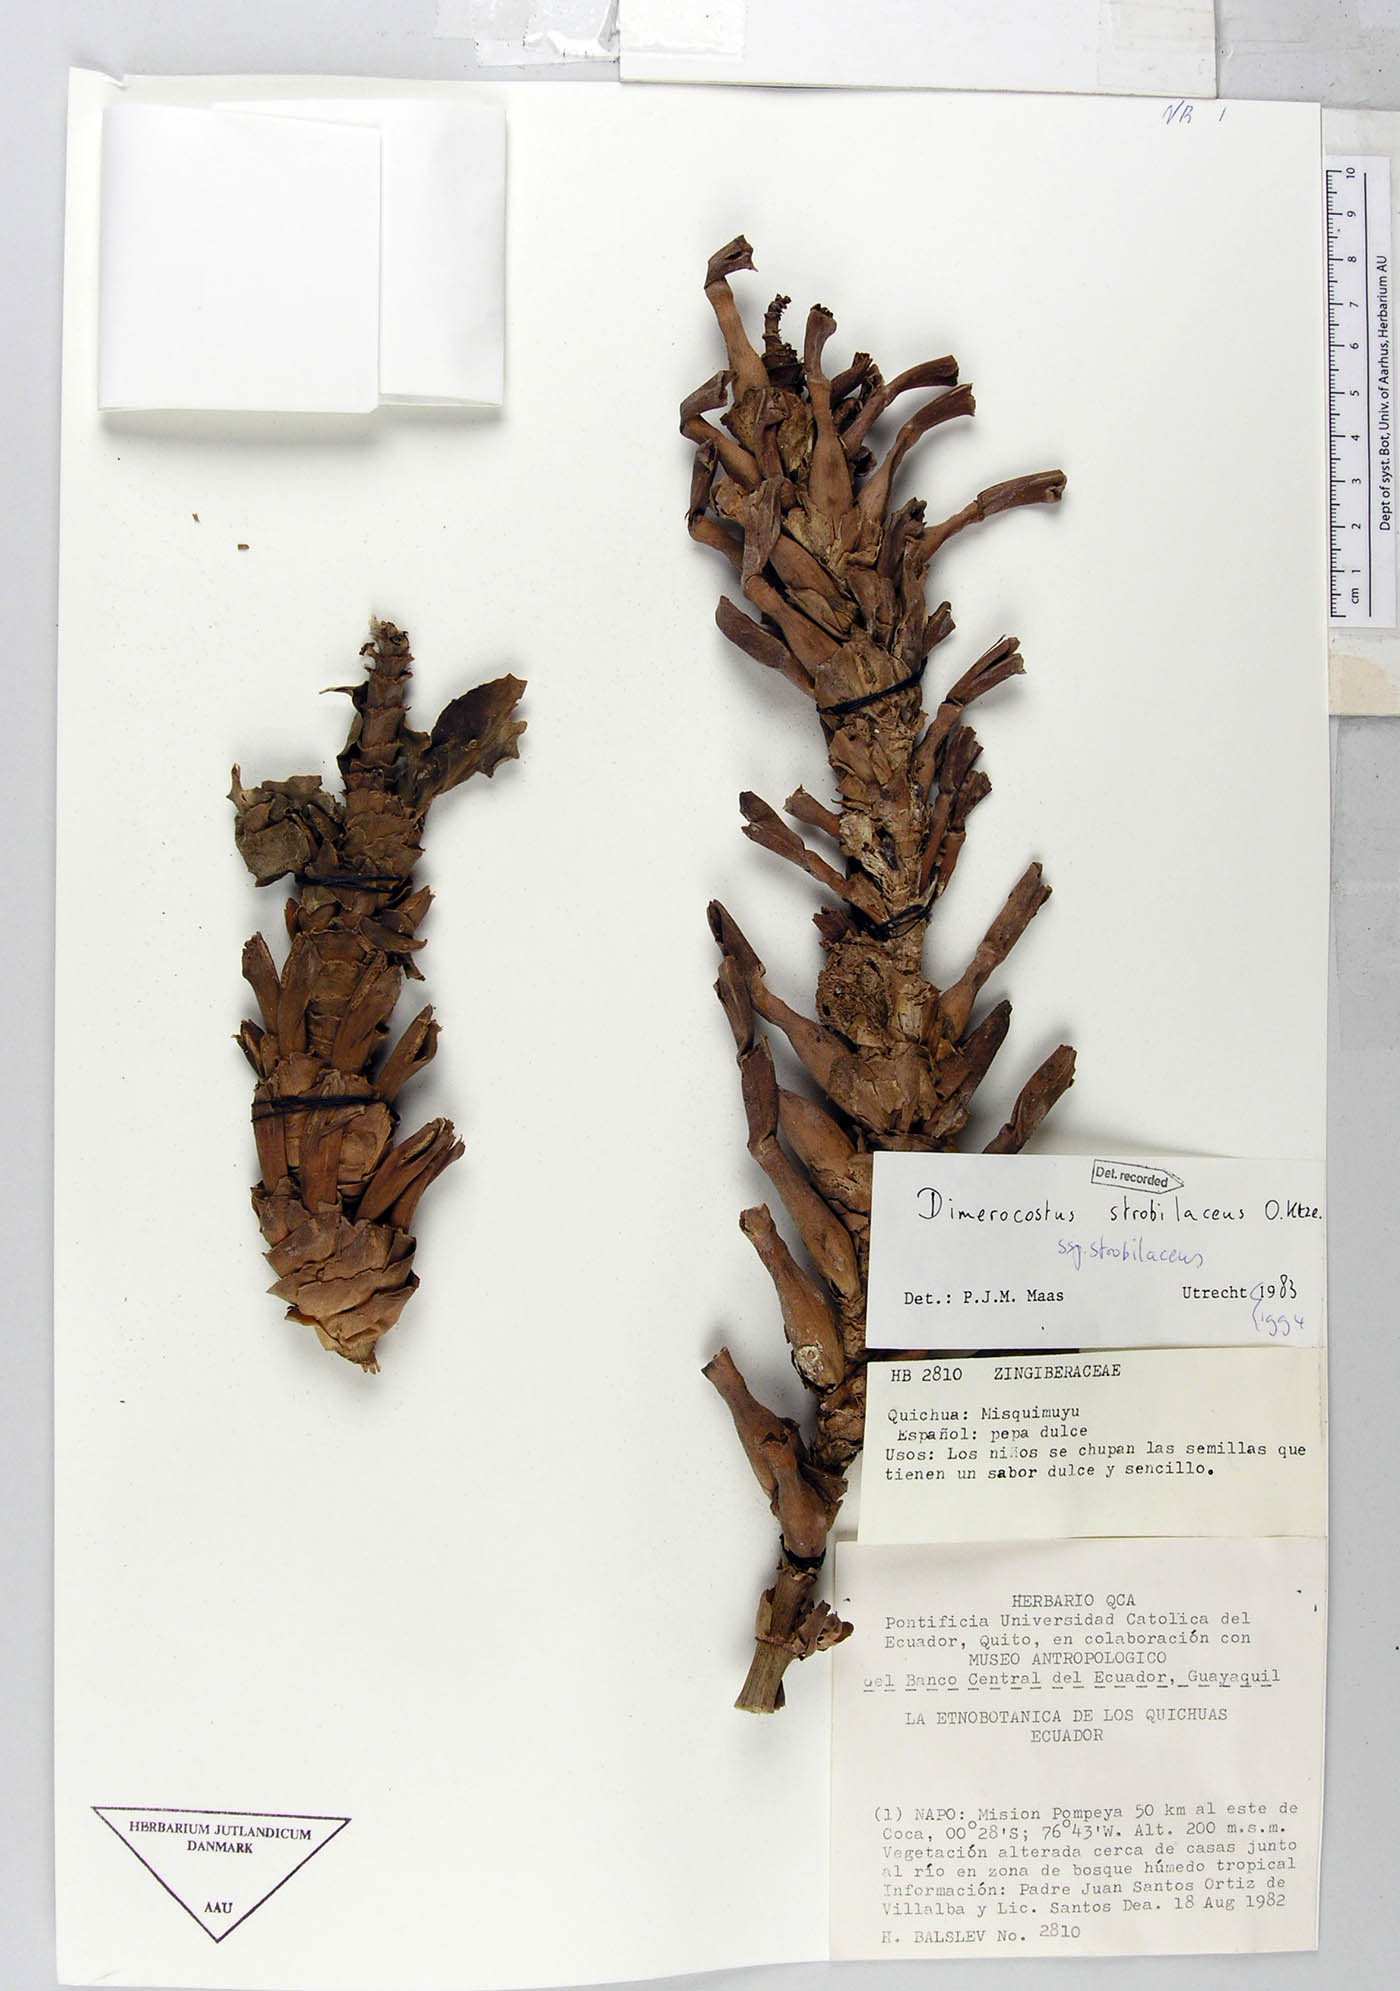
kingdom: Plantae
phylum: Tracheophyta
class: Liliopsida
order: Zingiberales
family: Costaceae
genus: Dimerocostus
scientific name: Dimerocostus strobilaceus
